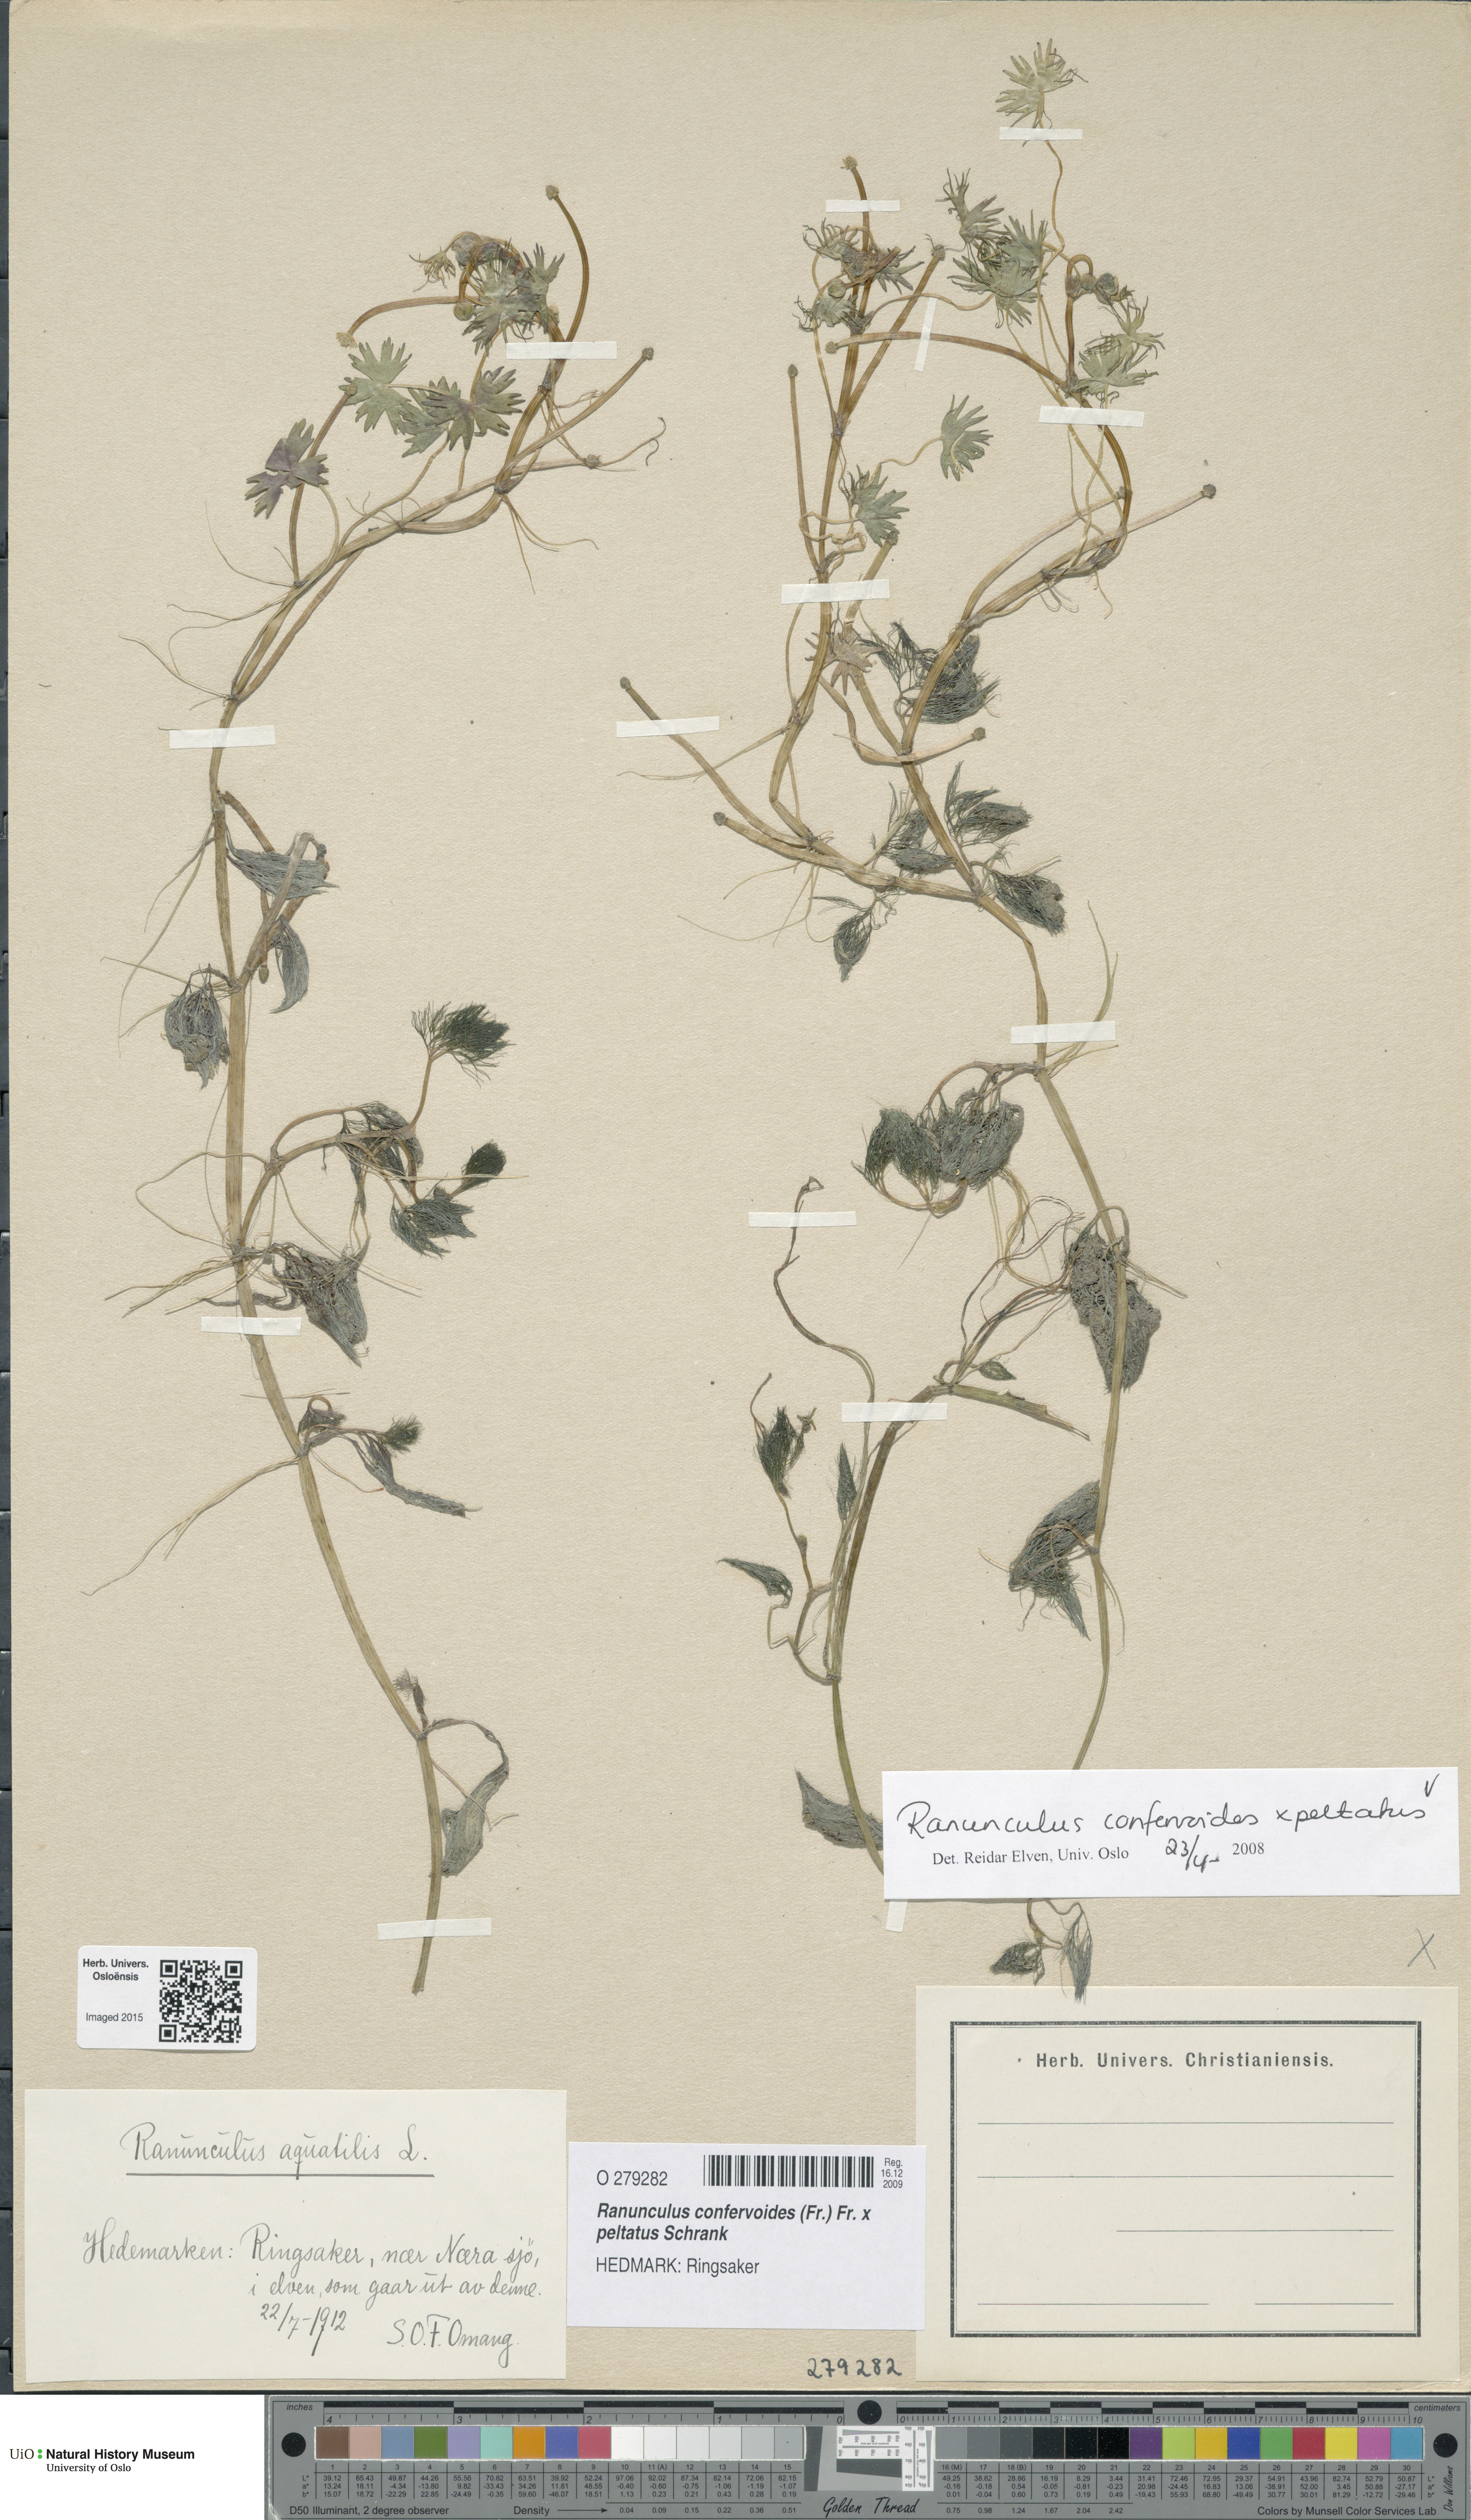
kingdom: Plantae
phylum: Tracheophyta
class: Magnoliopsida
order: Ranunculales
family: Ranunculaceae
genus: Ranunculus
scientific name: Ranunculus
